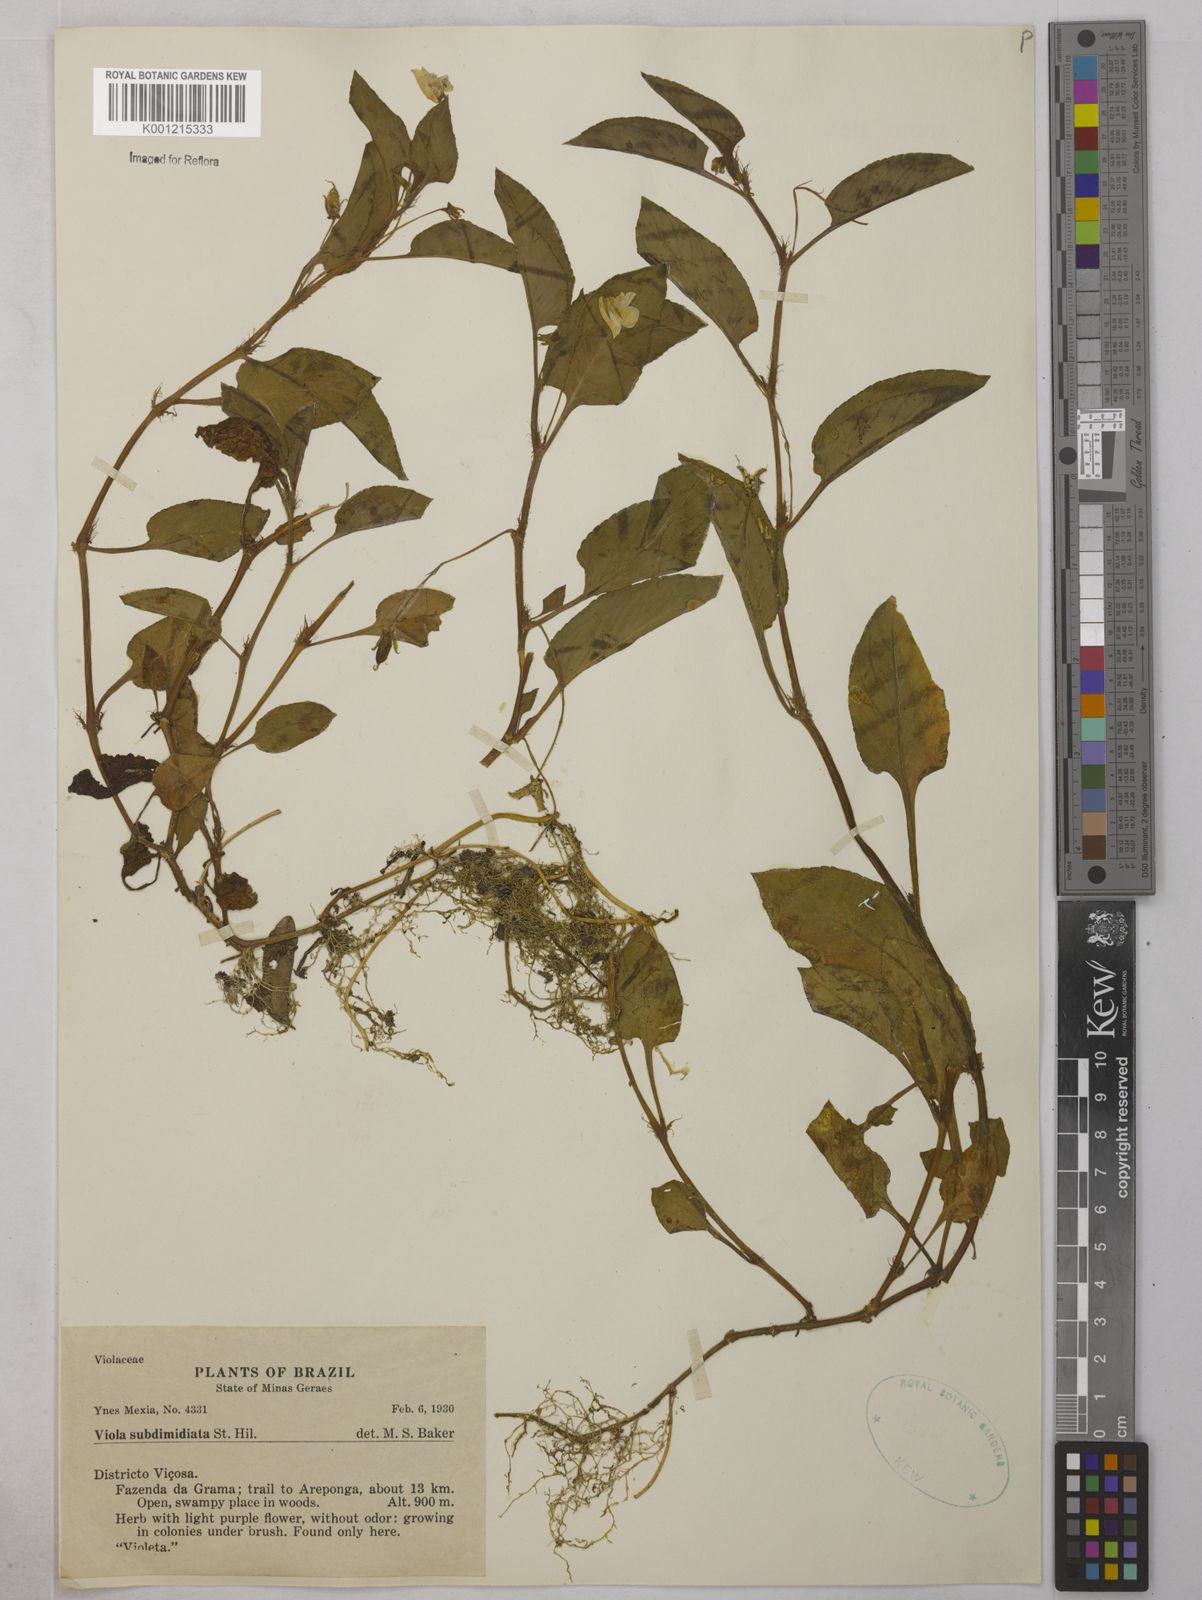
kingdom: Plantae
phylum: Tracheophyta
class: Magnoliopsida
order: Malpighiales
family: Violaceae
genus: Viola
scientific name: Viola subdimidiata
